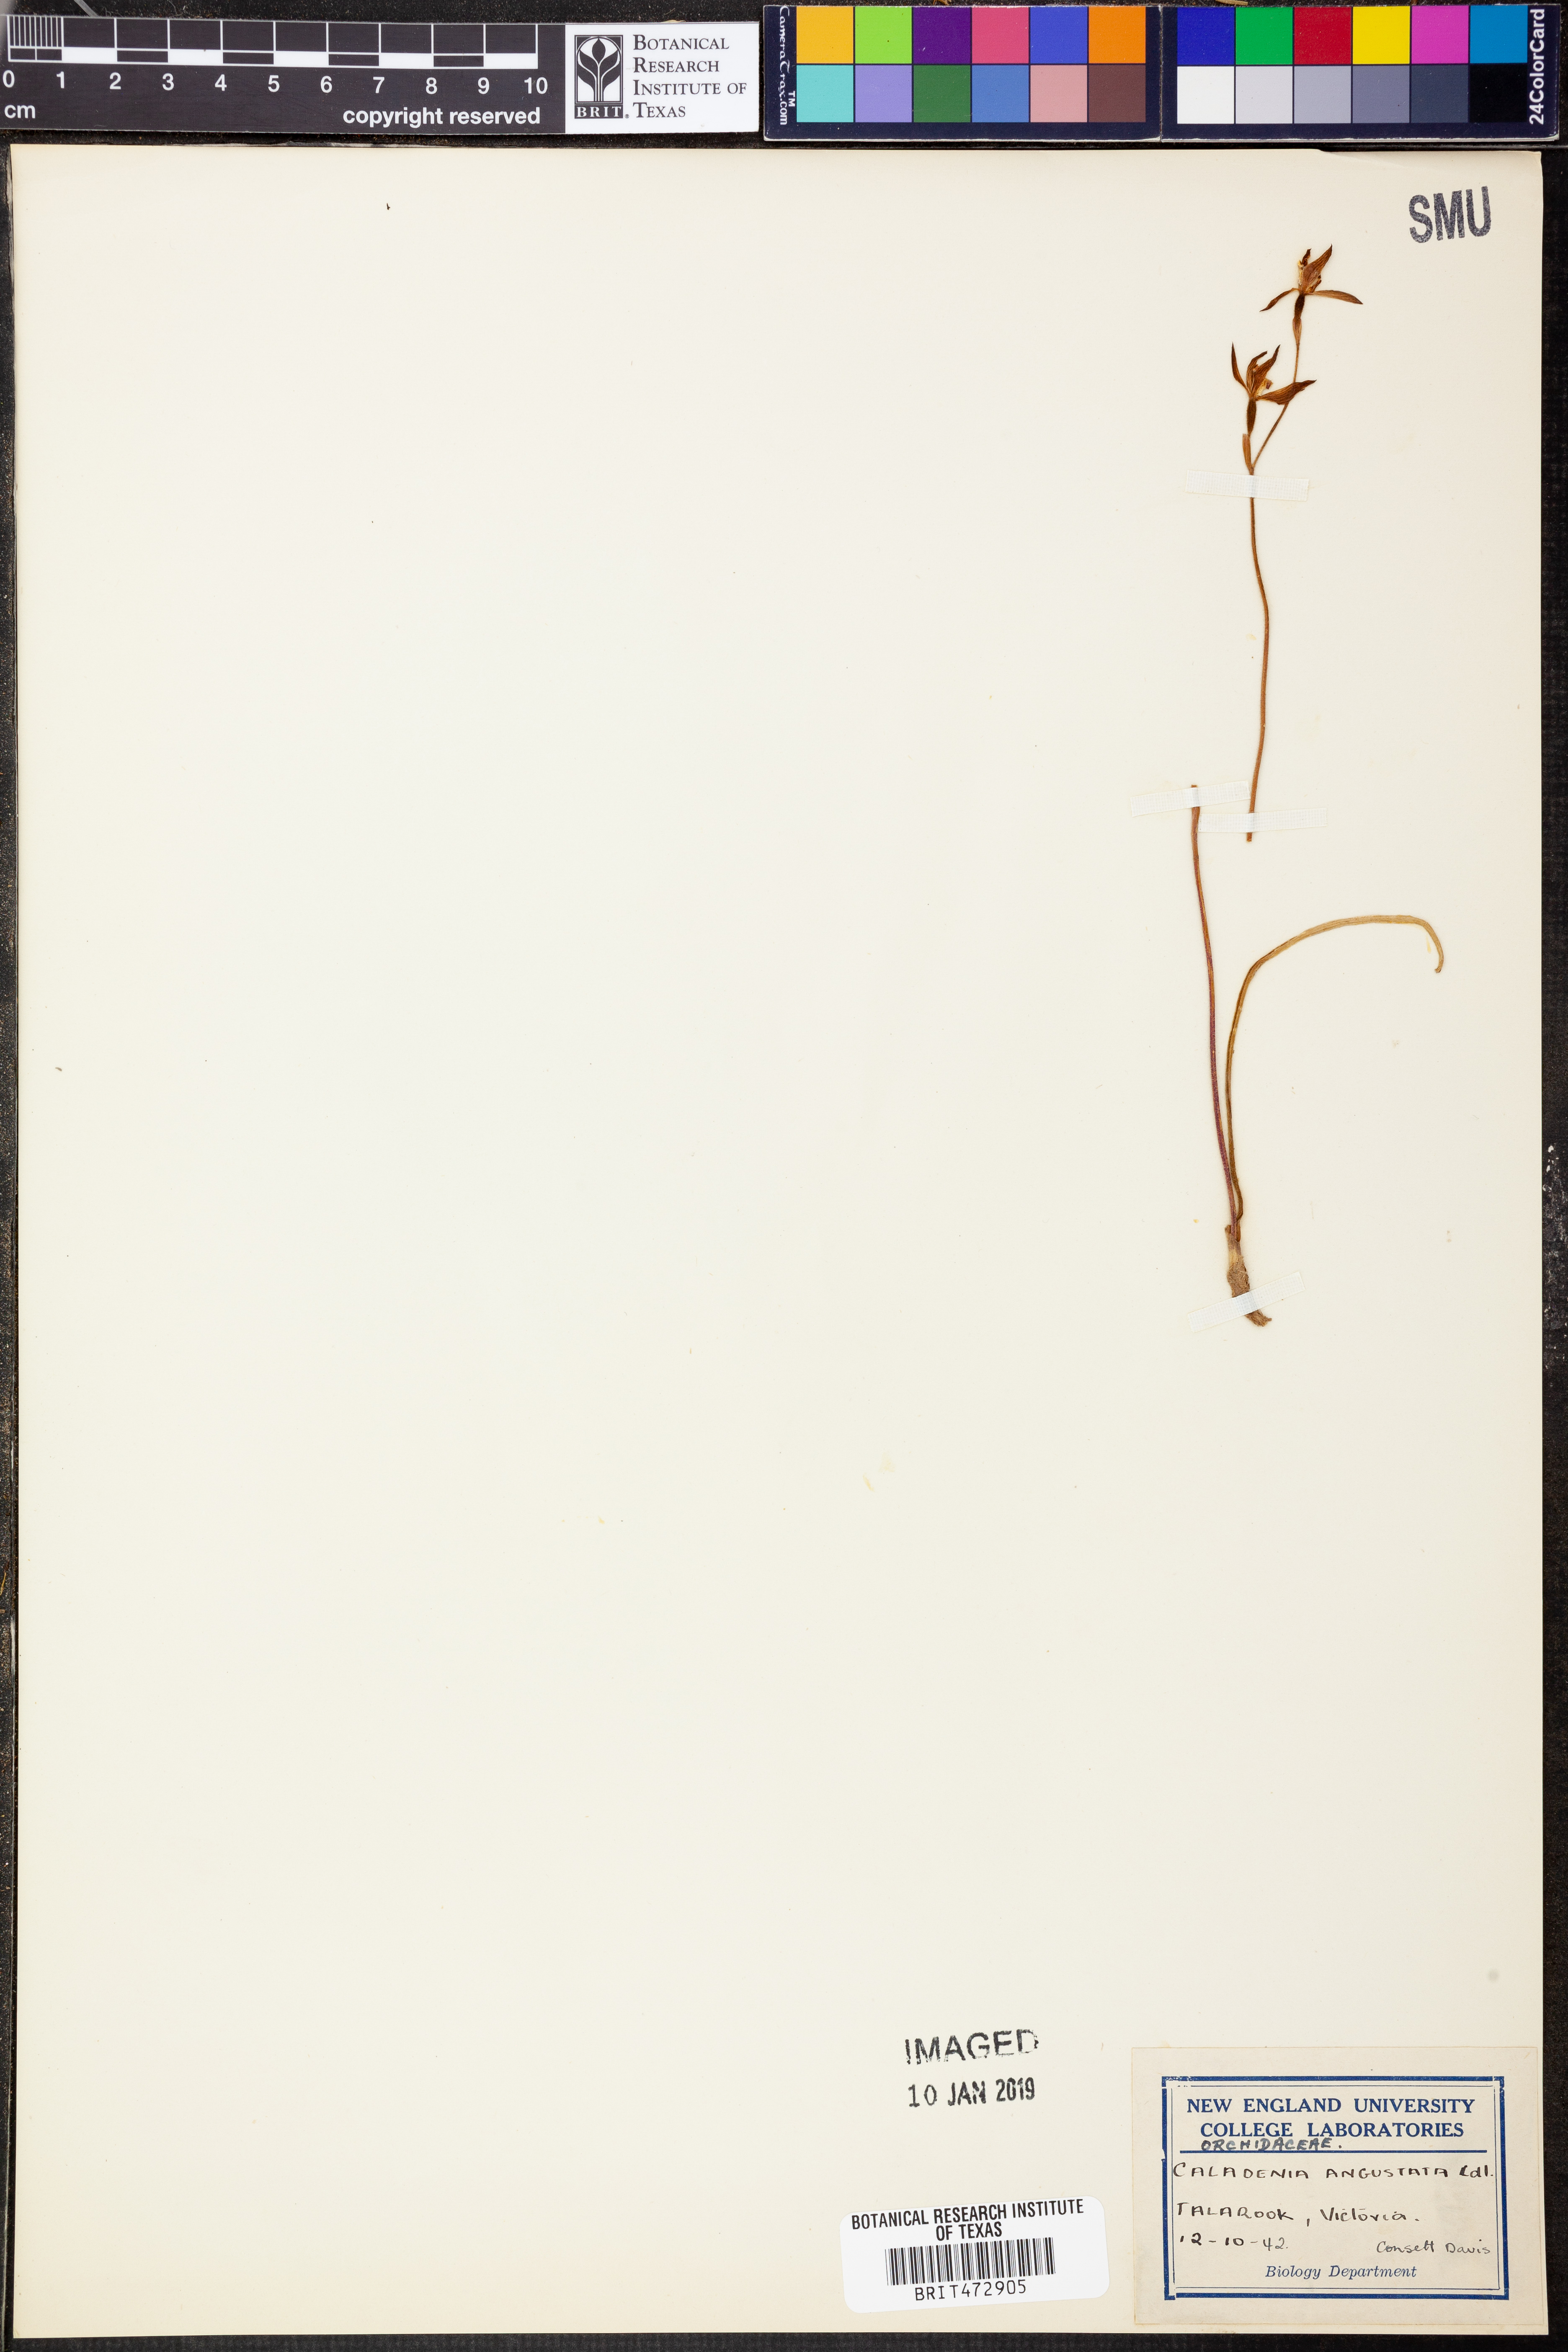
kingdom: Plantae
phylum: Tracheophyta
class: Liliopsida
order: Asparagales
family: Orchidaceae
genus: Caladenia
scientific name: Caladenia angustata
